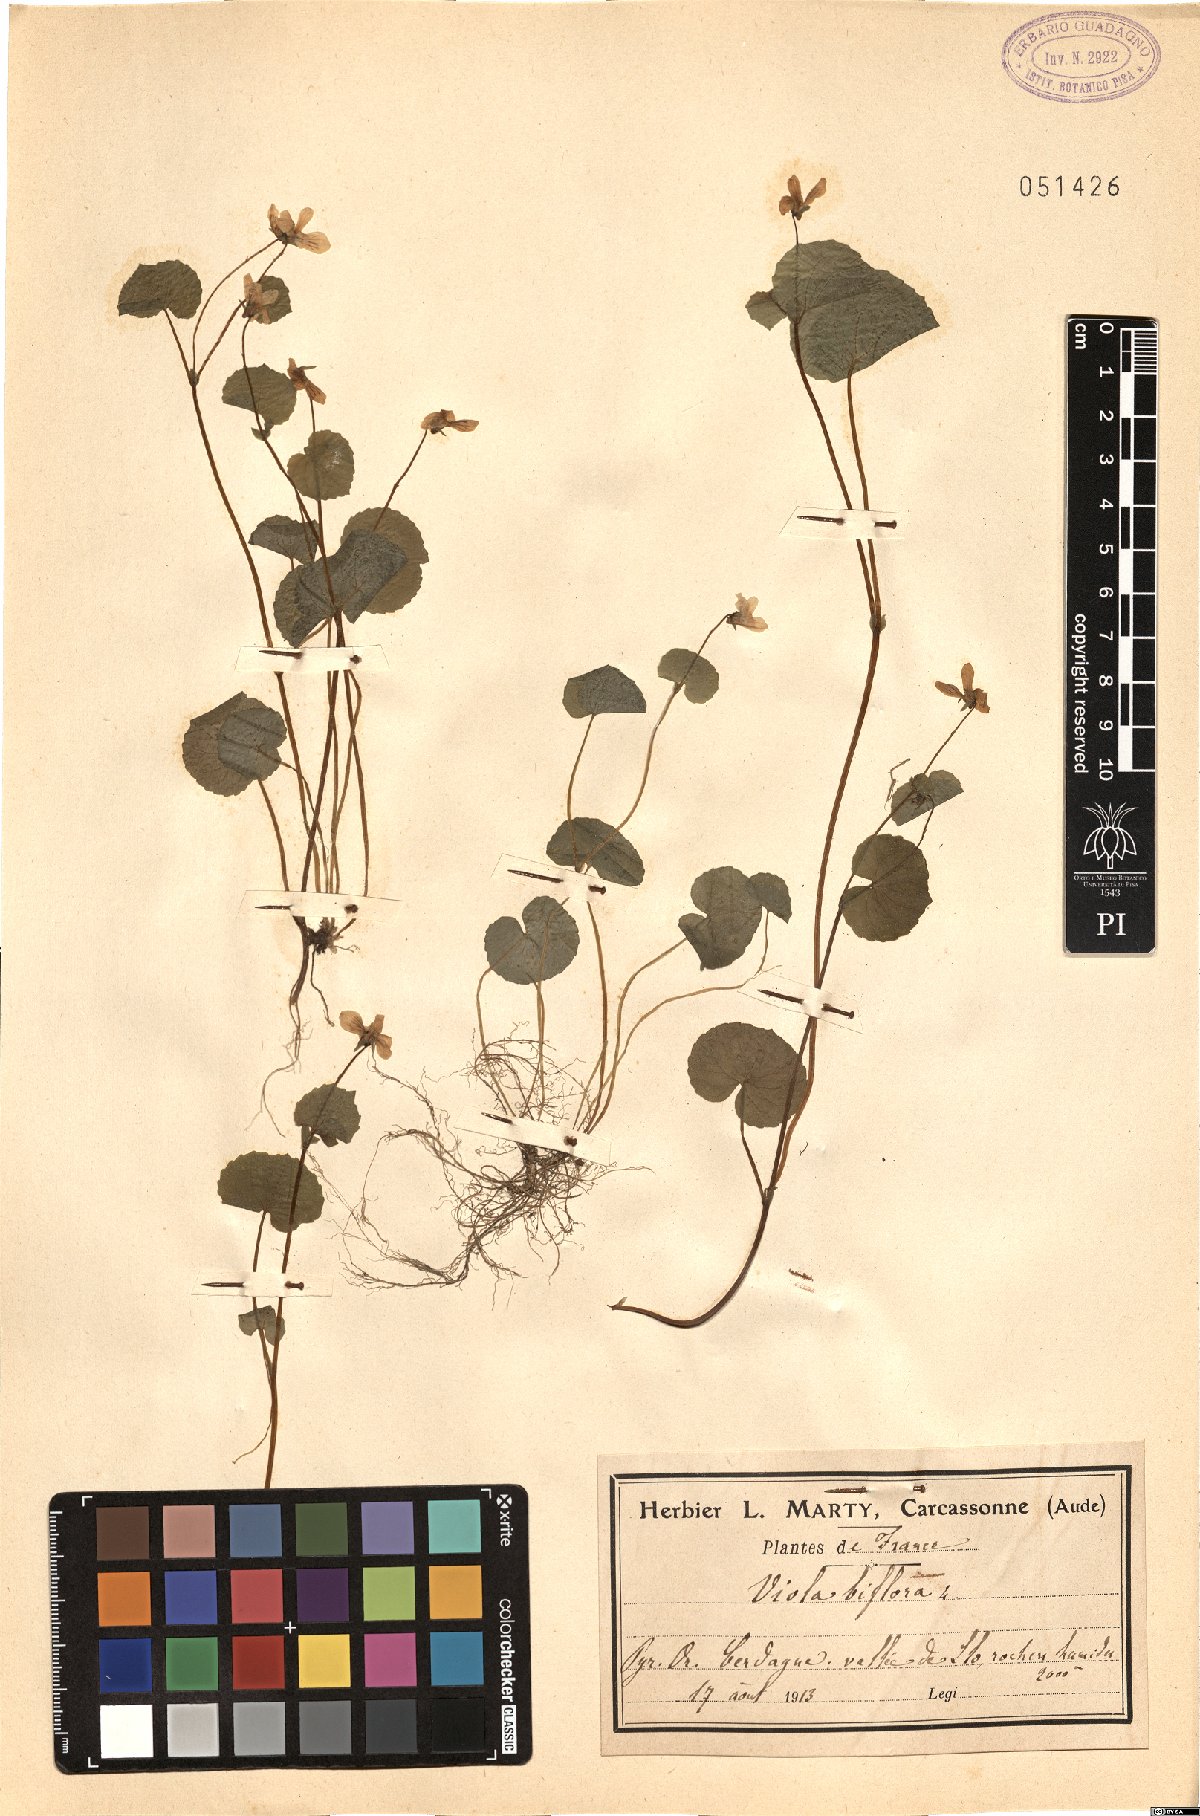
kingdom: Plantae
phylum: Tracheophyta
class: Magnoliopsida
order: Malpighiales
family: Violaceae
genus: Viola
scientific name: Viola biflora
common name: Alpine yellow violet
